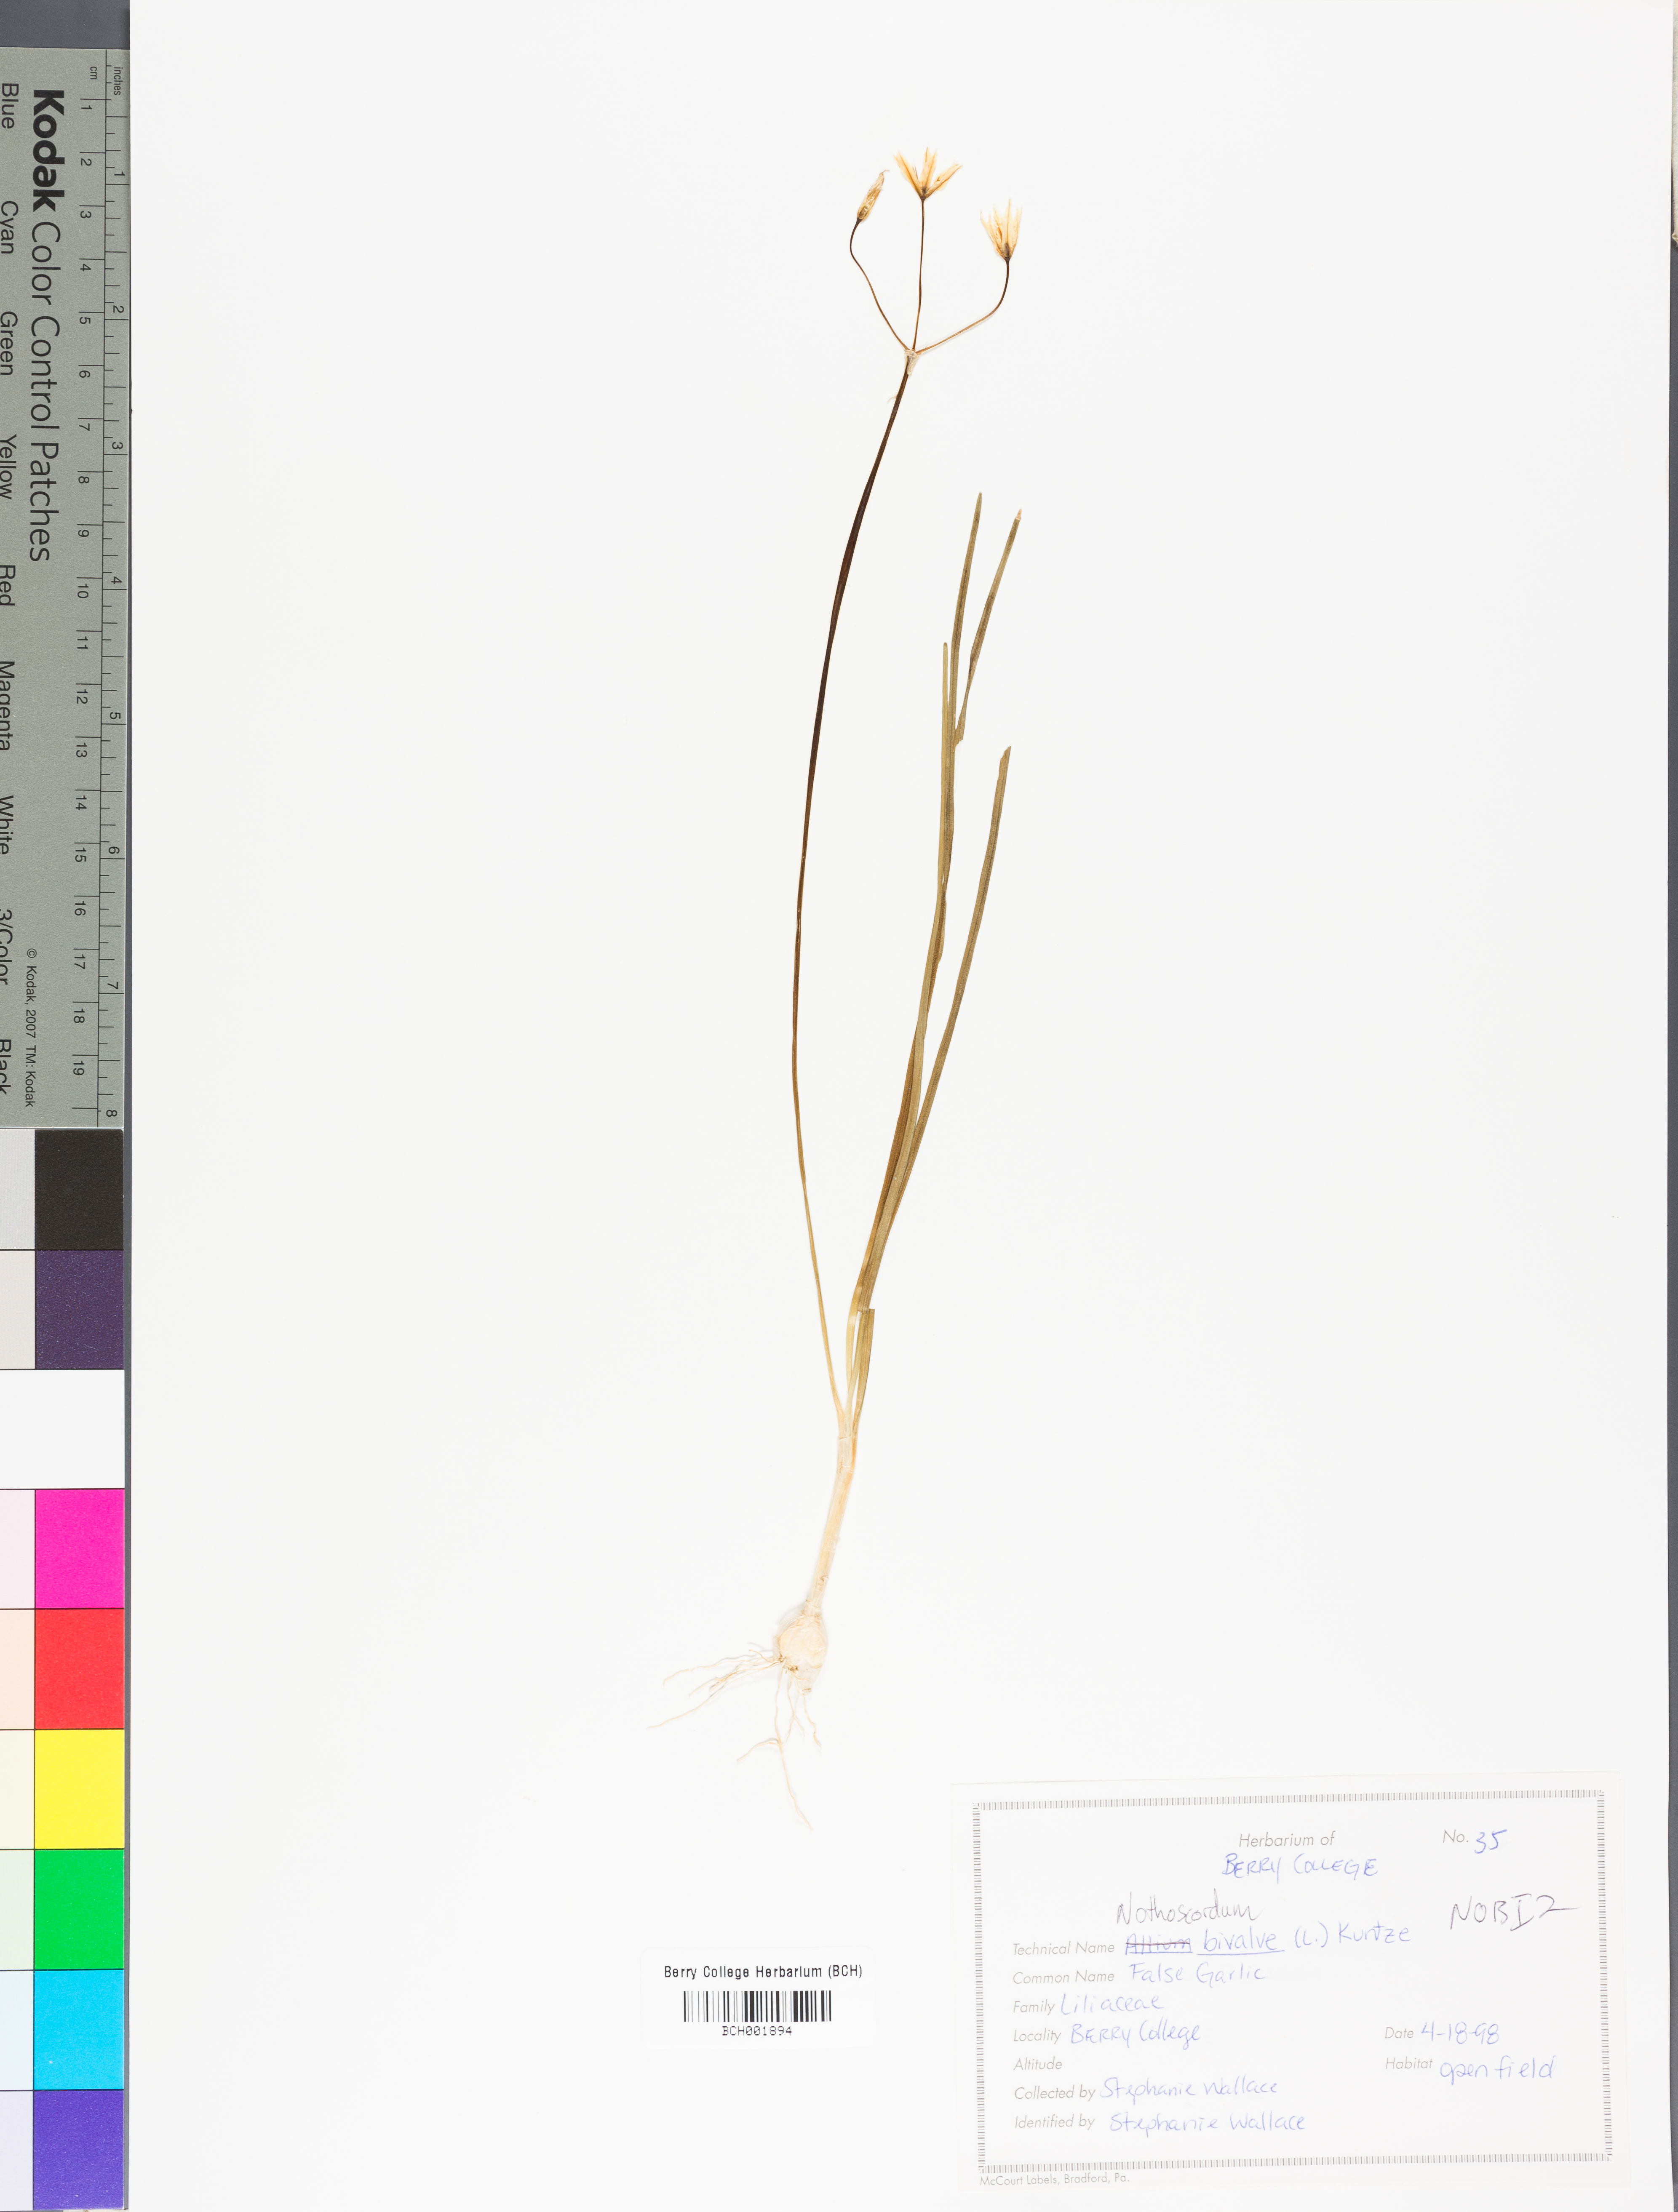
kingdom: Plantae
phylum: Tracheophyta
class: Liliopsida
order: Asparagales
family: Amaryllidaceae
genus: Nothoscordum
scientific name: Nothoscordum bivalve
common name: Crow-poison
